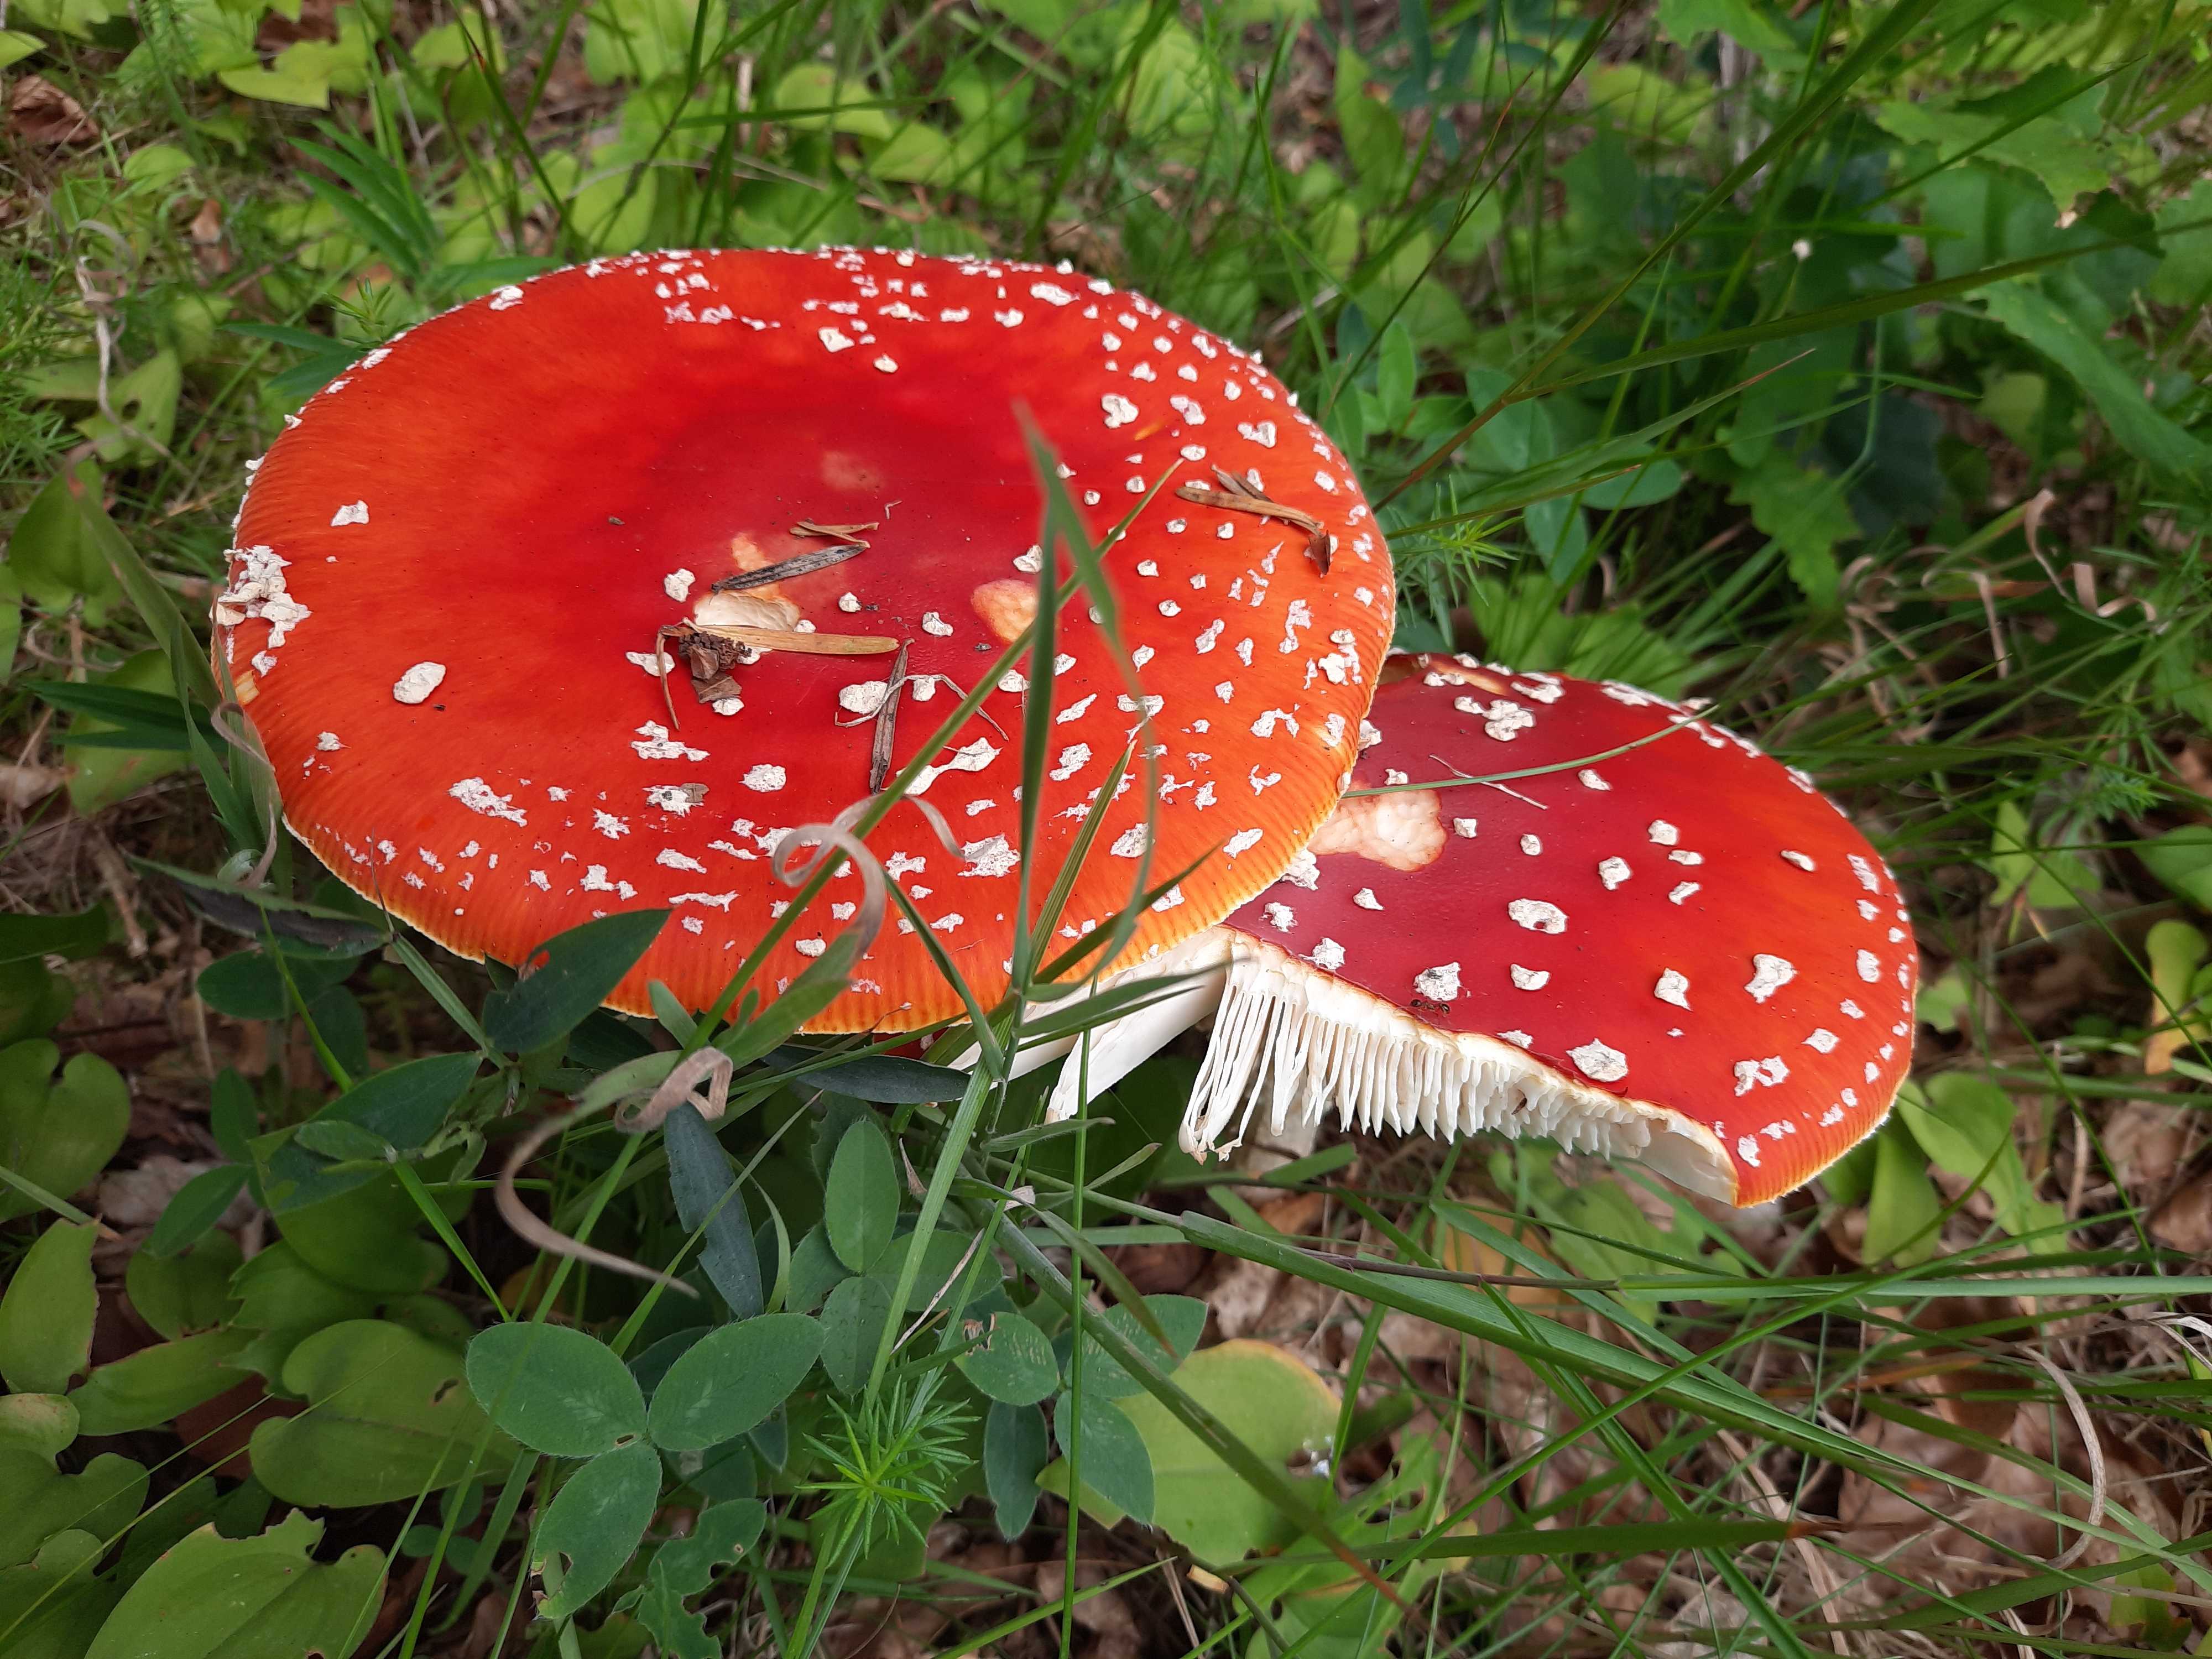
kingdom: Fungi
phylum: Basidiomycota
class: Agaricomycetes
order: Agaricales
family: Amanitaceae
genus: Amanita
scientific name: Amanita muscaria
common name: rød fluesvamp
